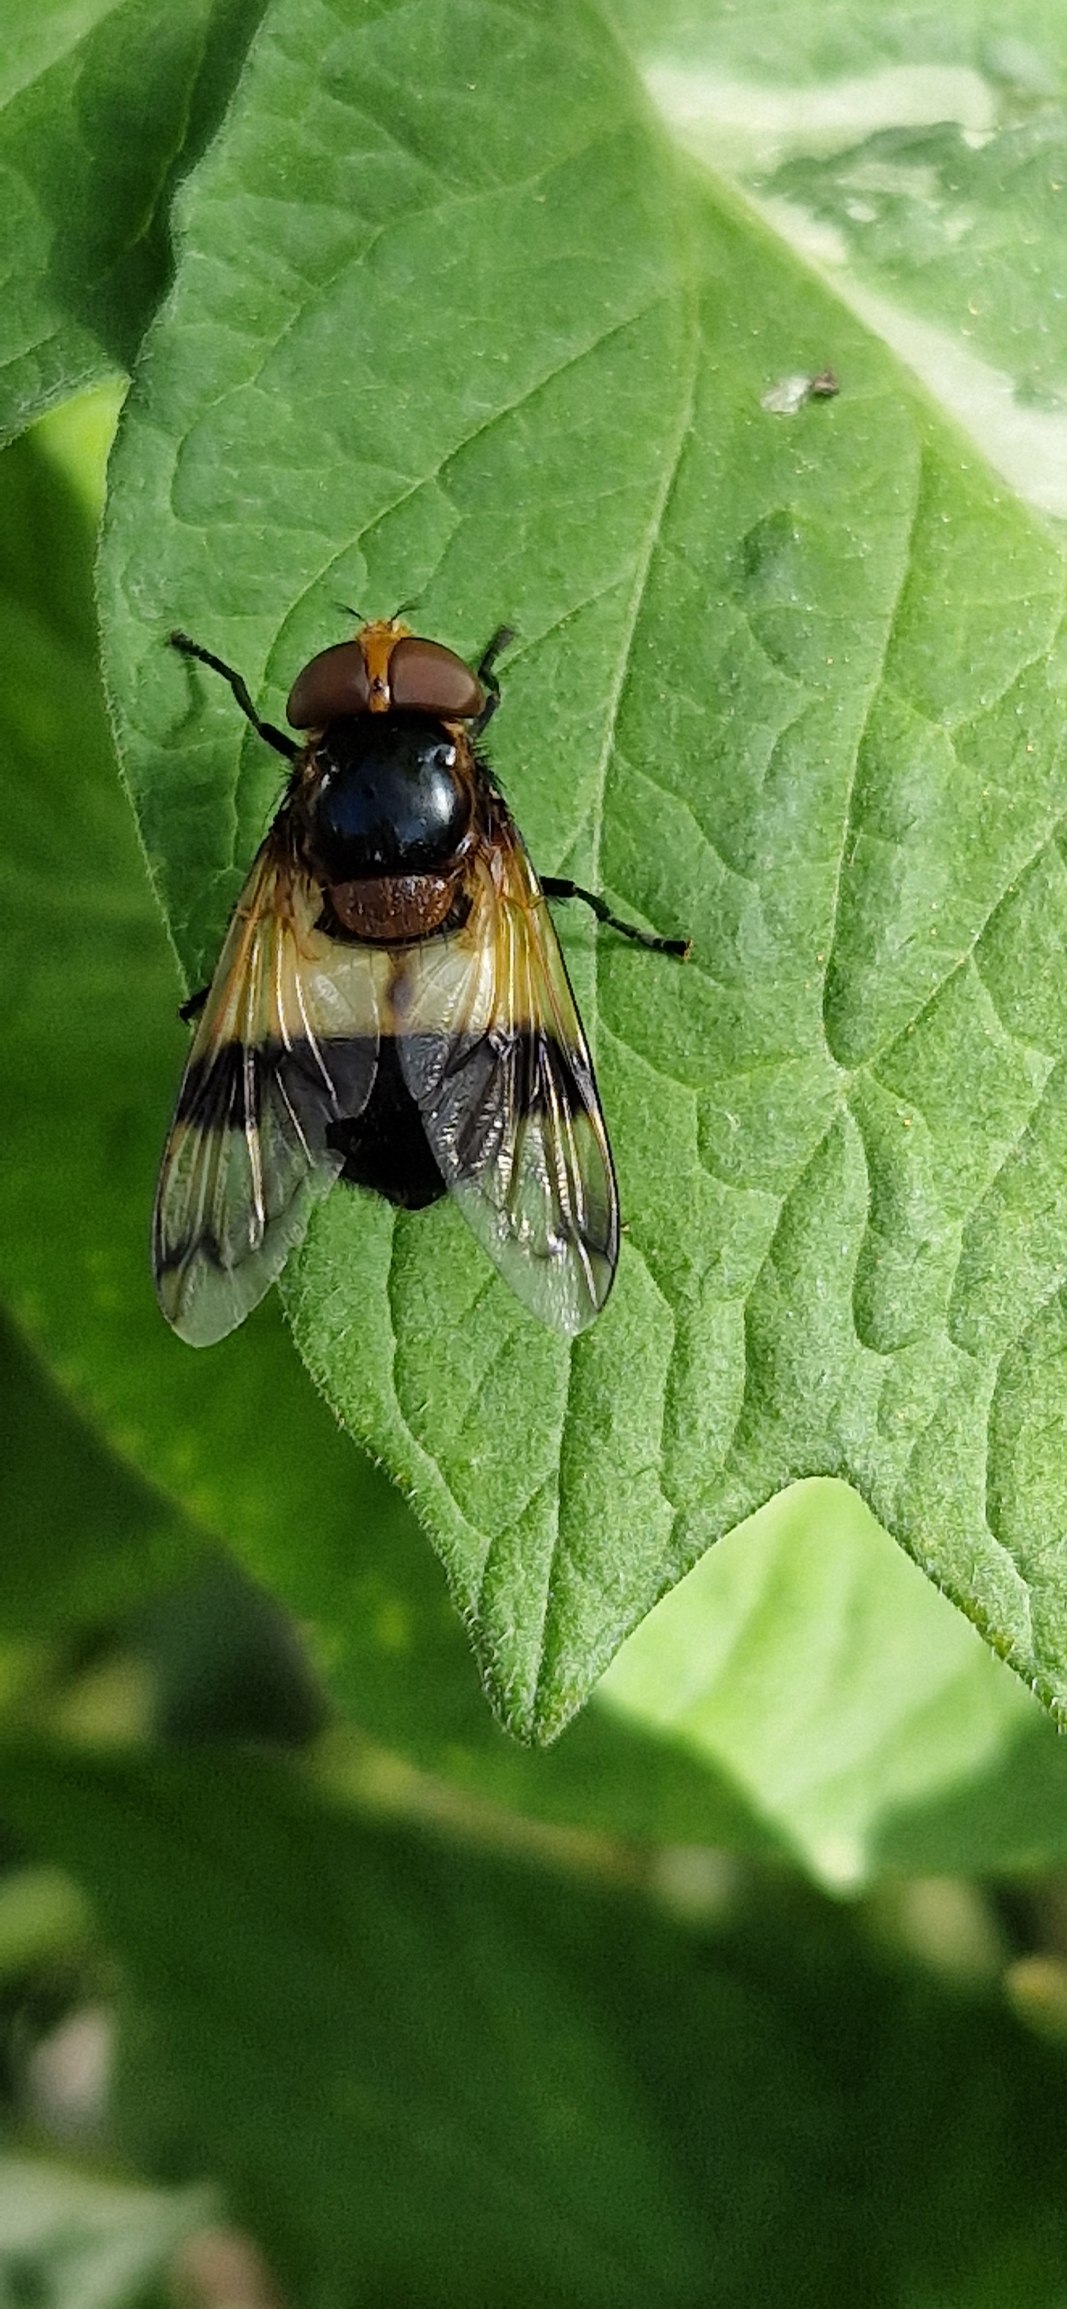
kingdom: Animalia
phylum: Arthropoda
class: Insecta
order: Diptera
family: Syrphidae
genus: Volucella
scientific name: Volucella pellucens
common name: Hvidbåndet humlesvirreflue
